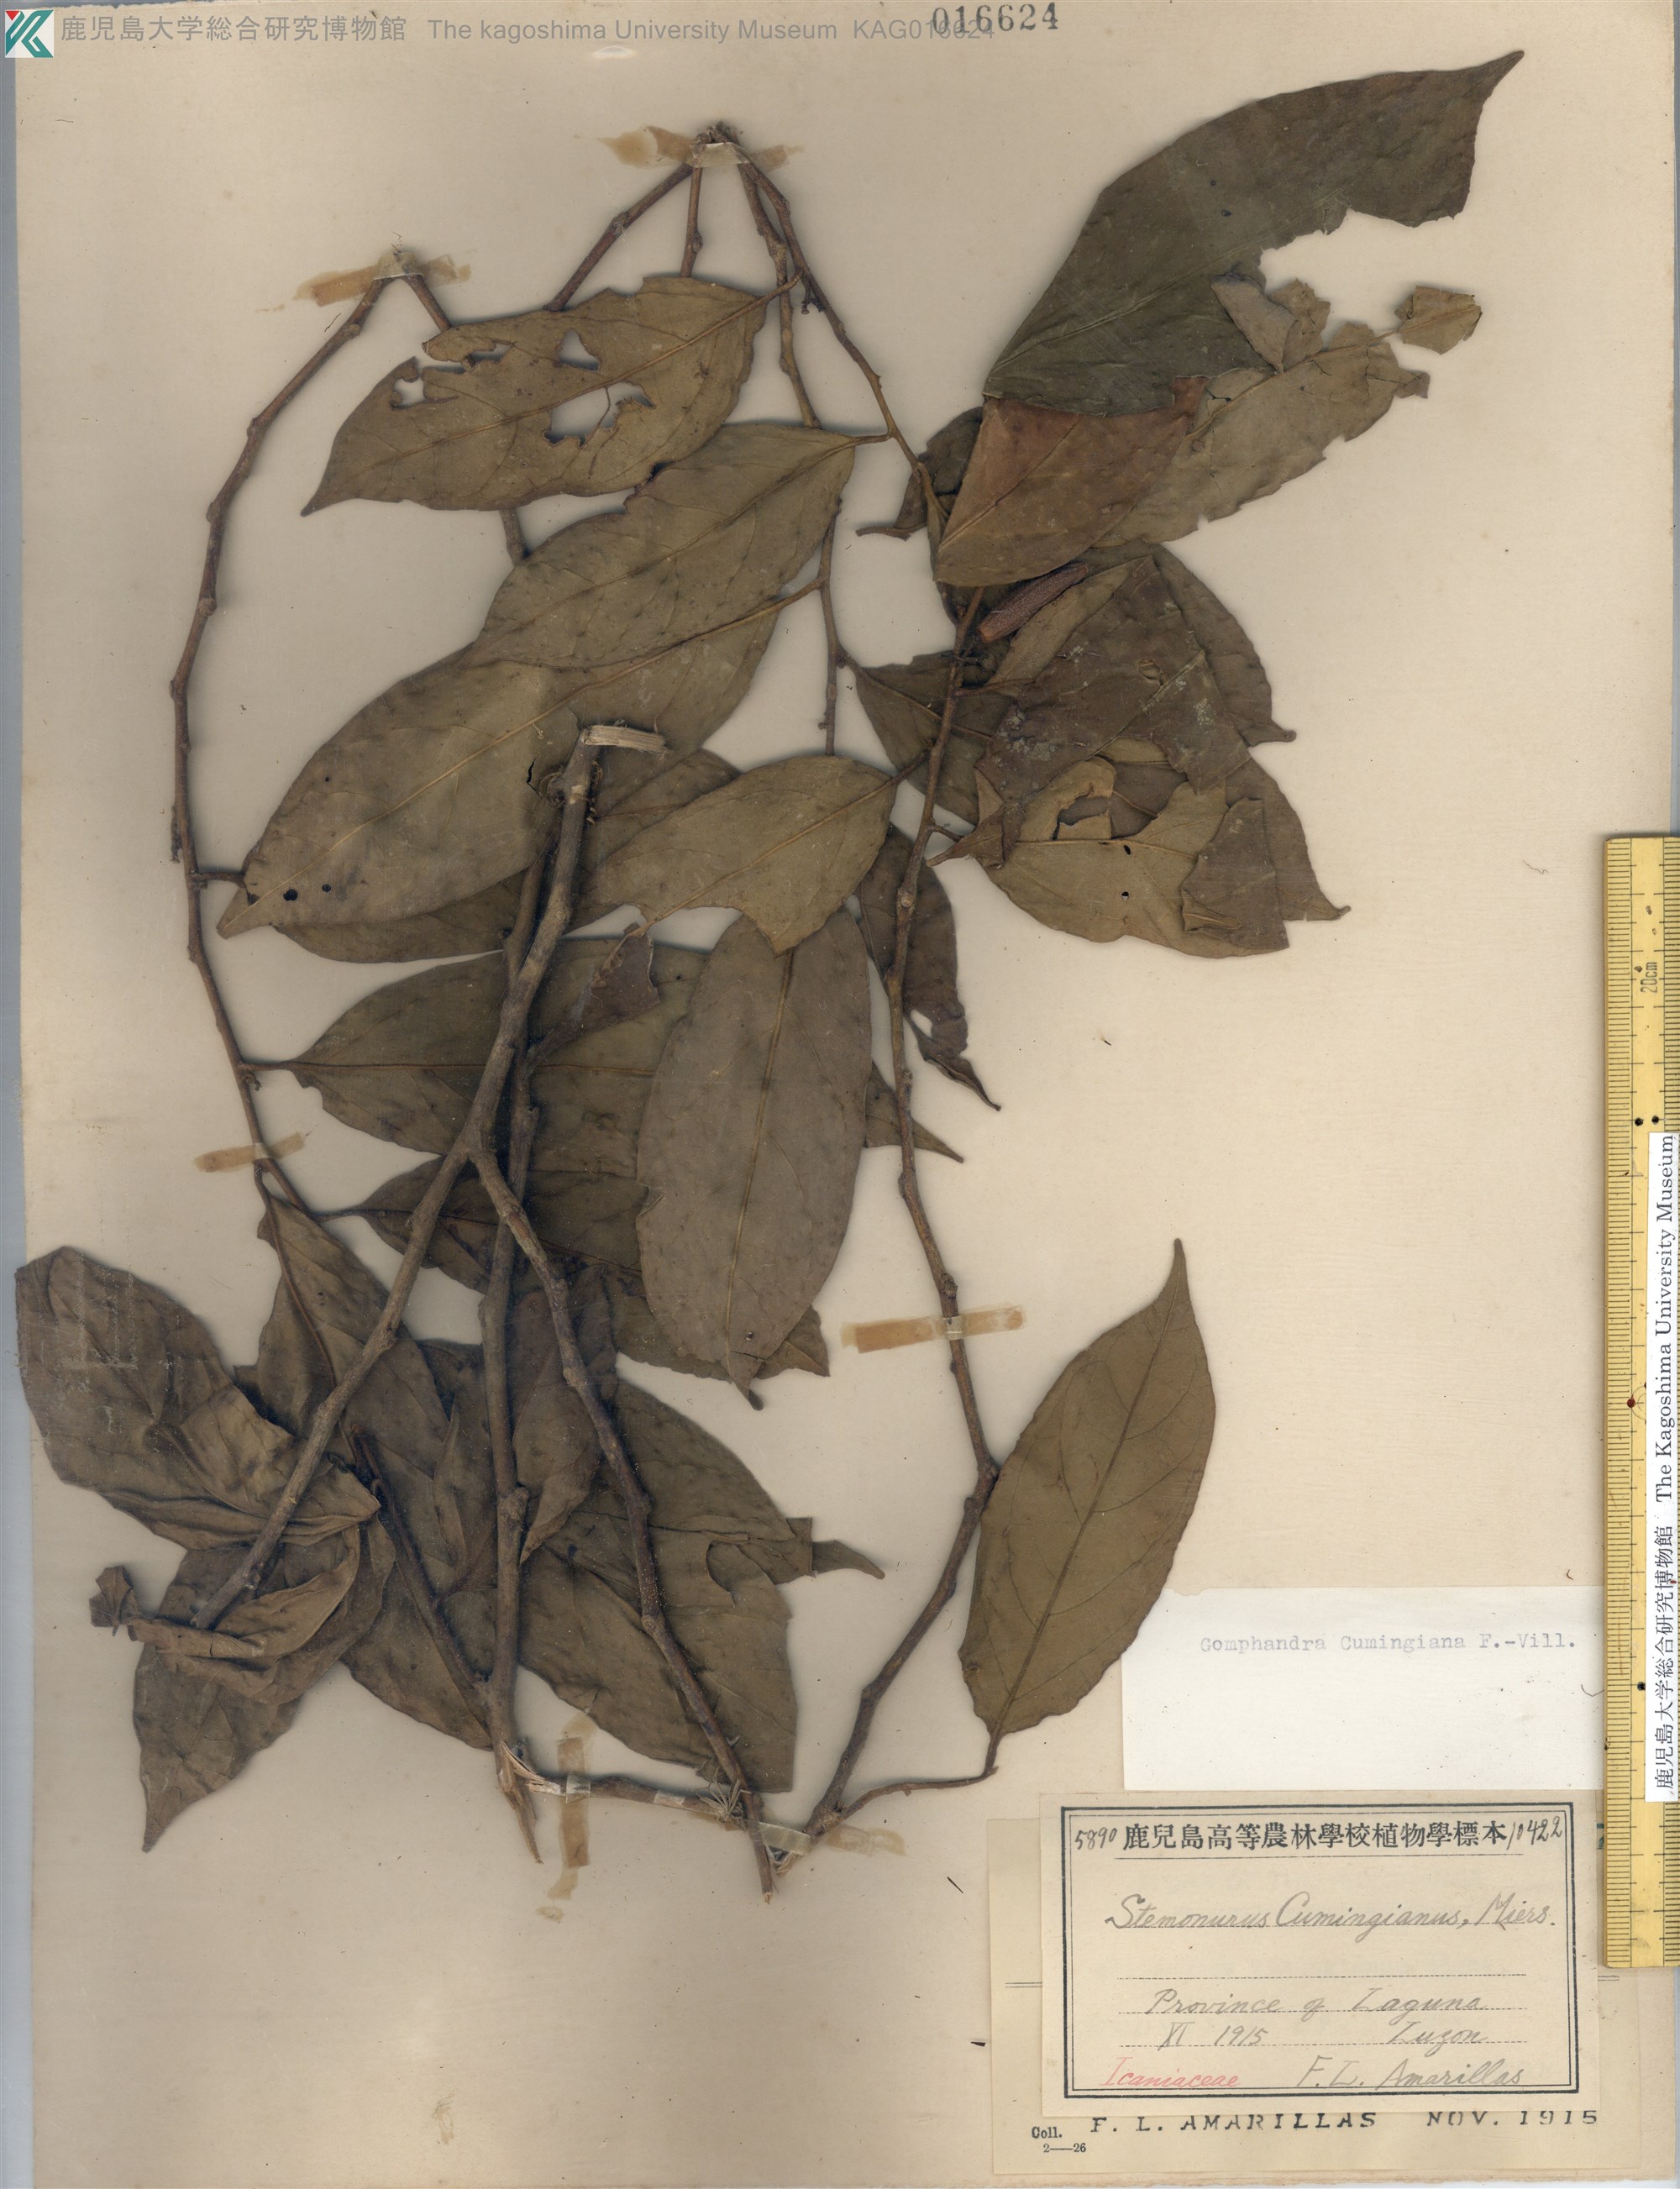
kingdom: Plantae
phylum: Tracheophyta
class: Magnoliopsida
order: Cardiopteridales
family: Stemonuraceae
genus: Gomphandra
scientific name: Gomphandra cumingiana
